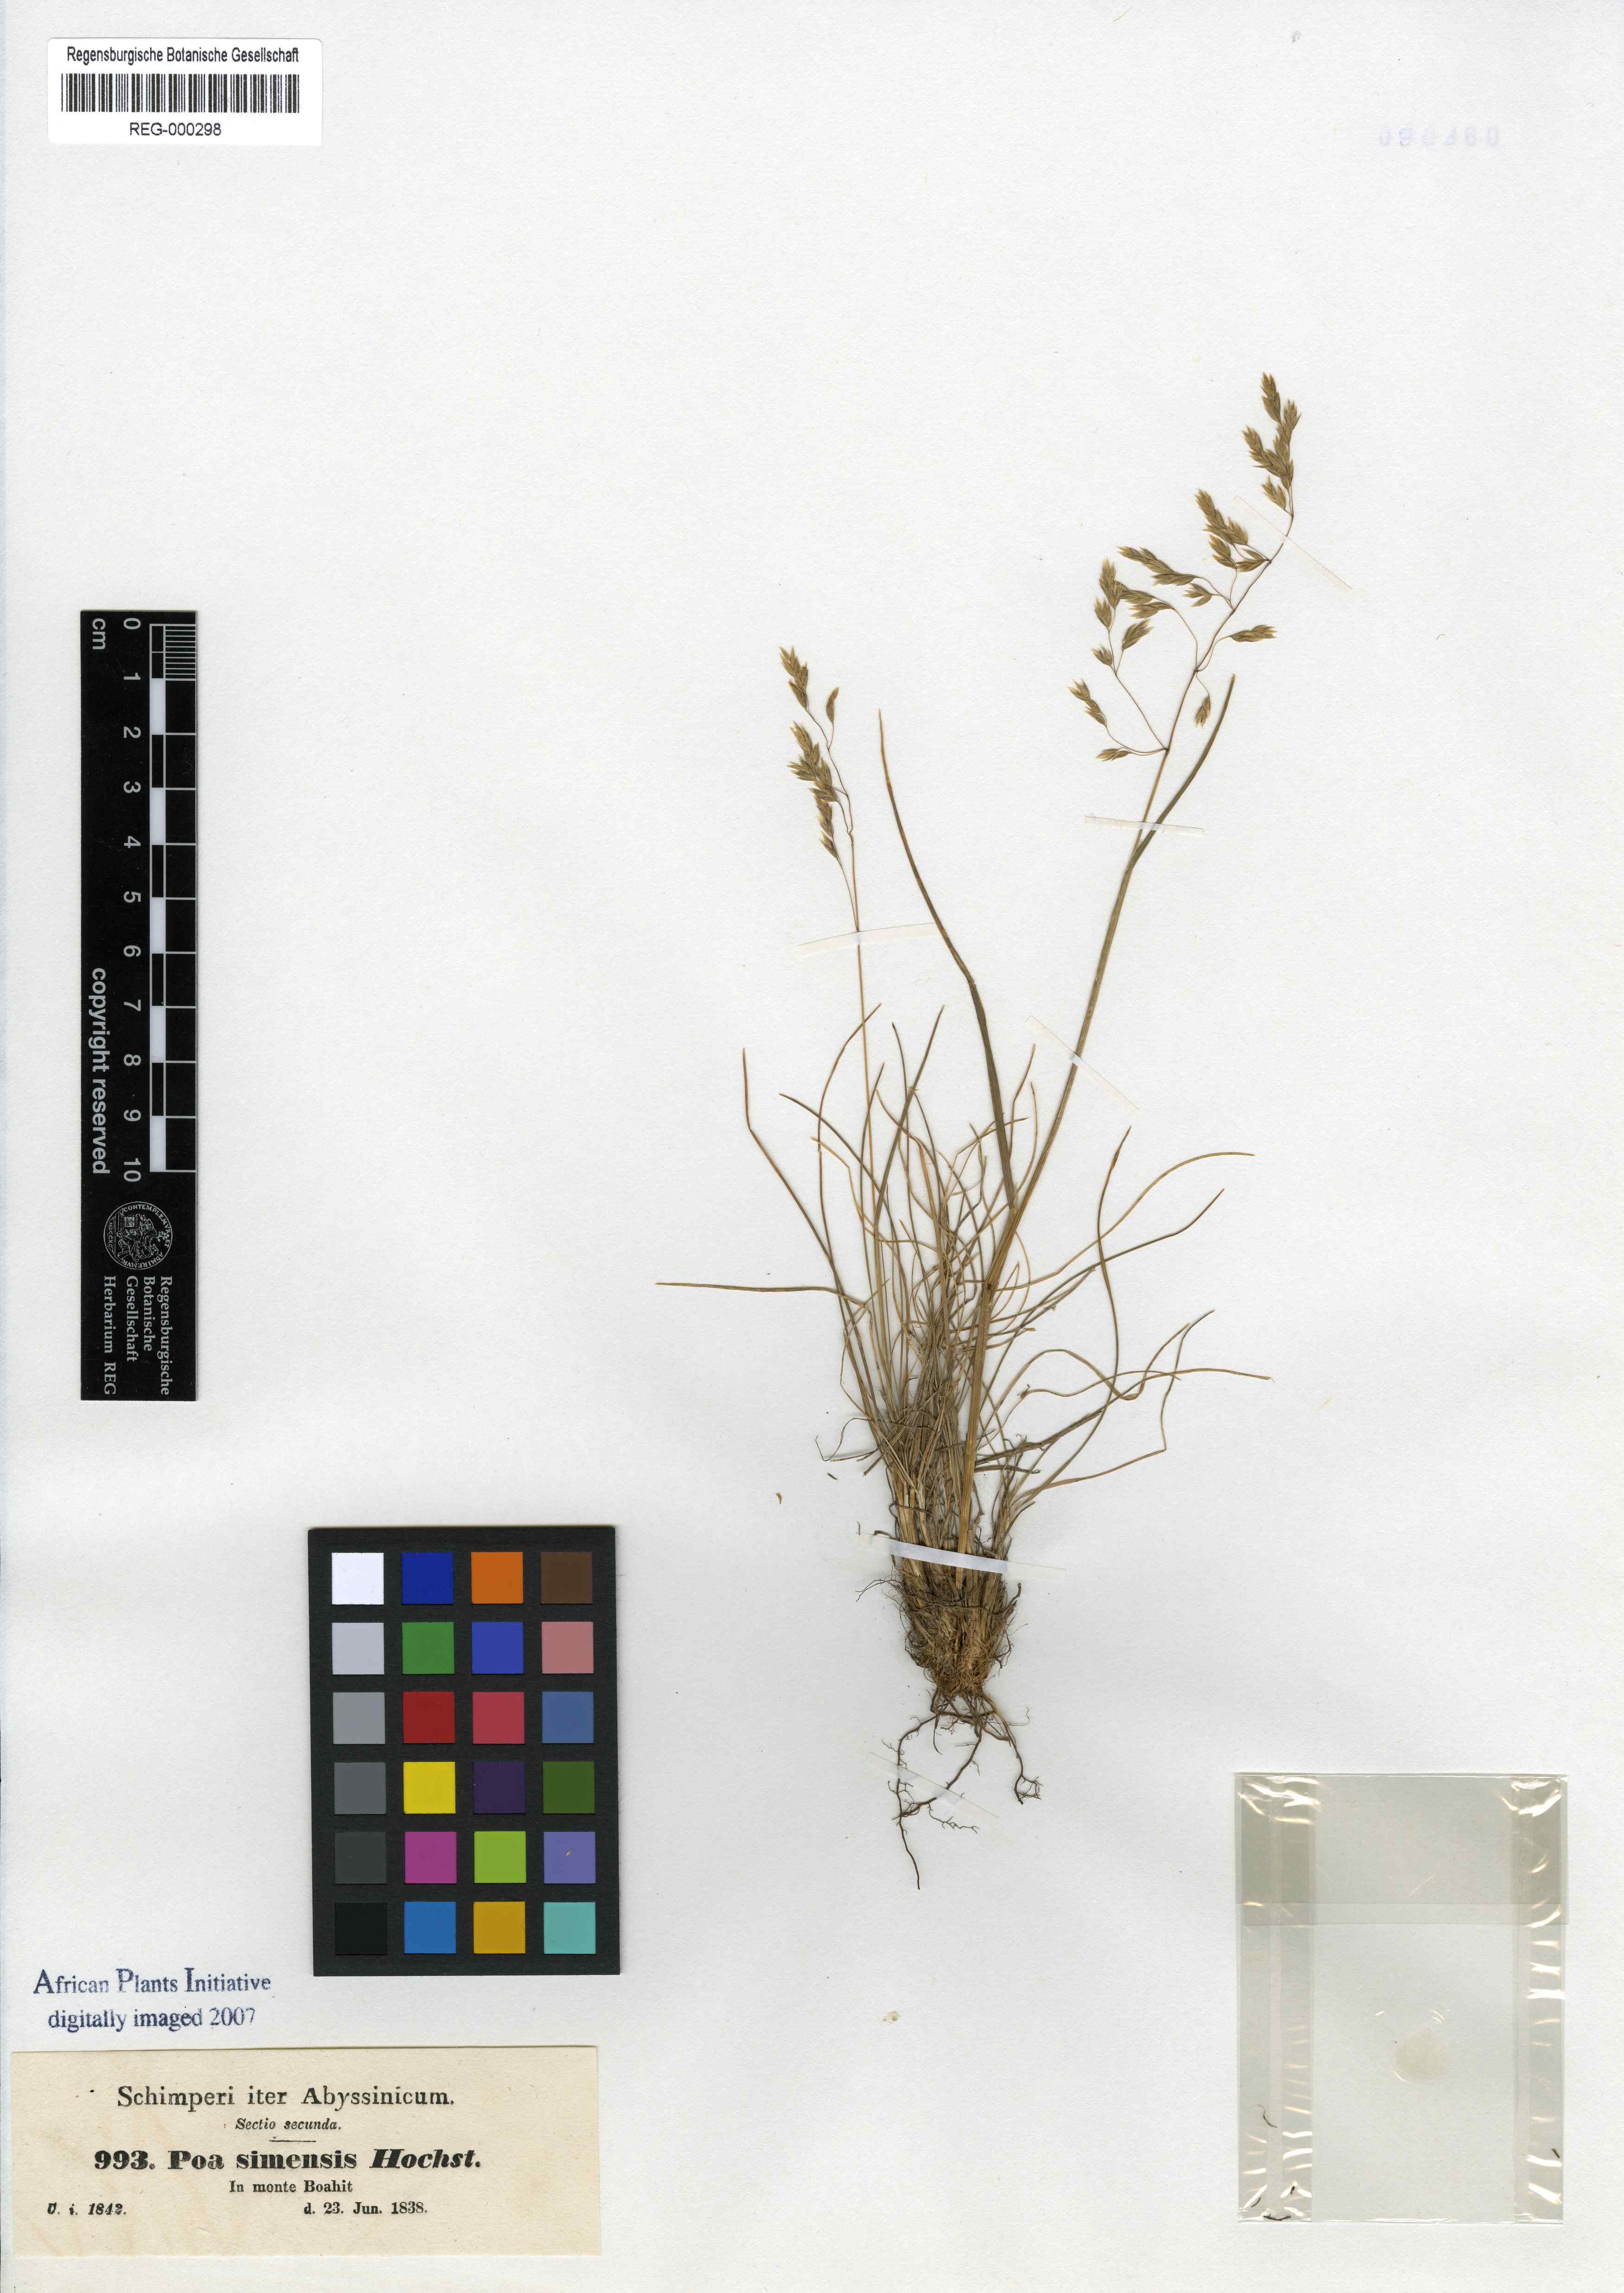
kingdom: Plantae
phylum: Tracheophyta
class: Liliopsida
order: Poales
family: Poaceae
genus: Poa
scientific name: Poa simensis
